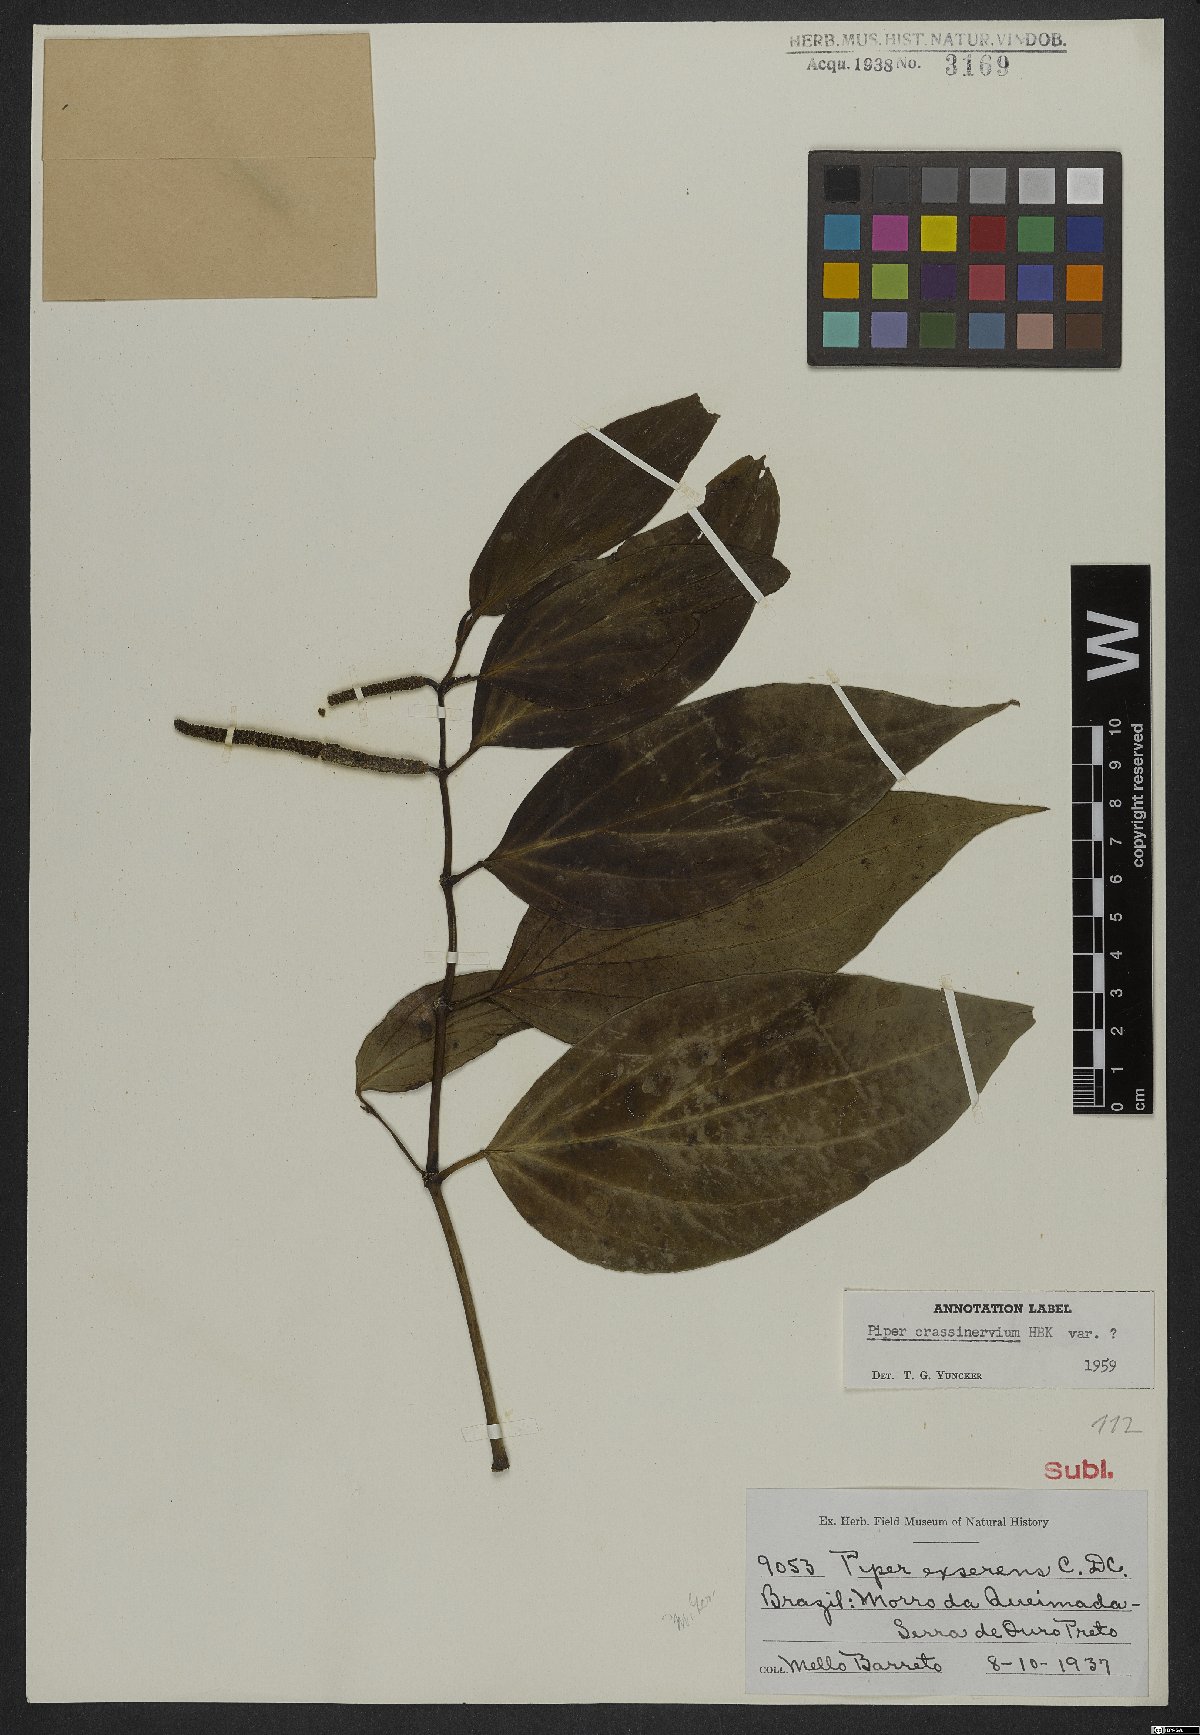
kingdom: Plantae
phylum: Tracheophyta
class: Magnoliopsida
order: Piperales
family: Piperaceae
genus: Piper
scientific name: Piper crassinervium
